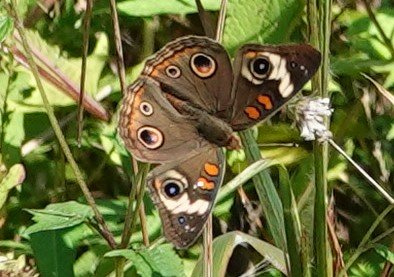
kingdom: Animalia
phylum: Arthropoda
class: Insecta
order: Lepidoptera
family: Nymphalidae
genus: Junonia
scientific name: Junonia coenia
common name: Common Buckeye
